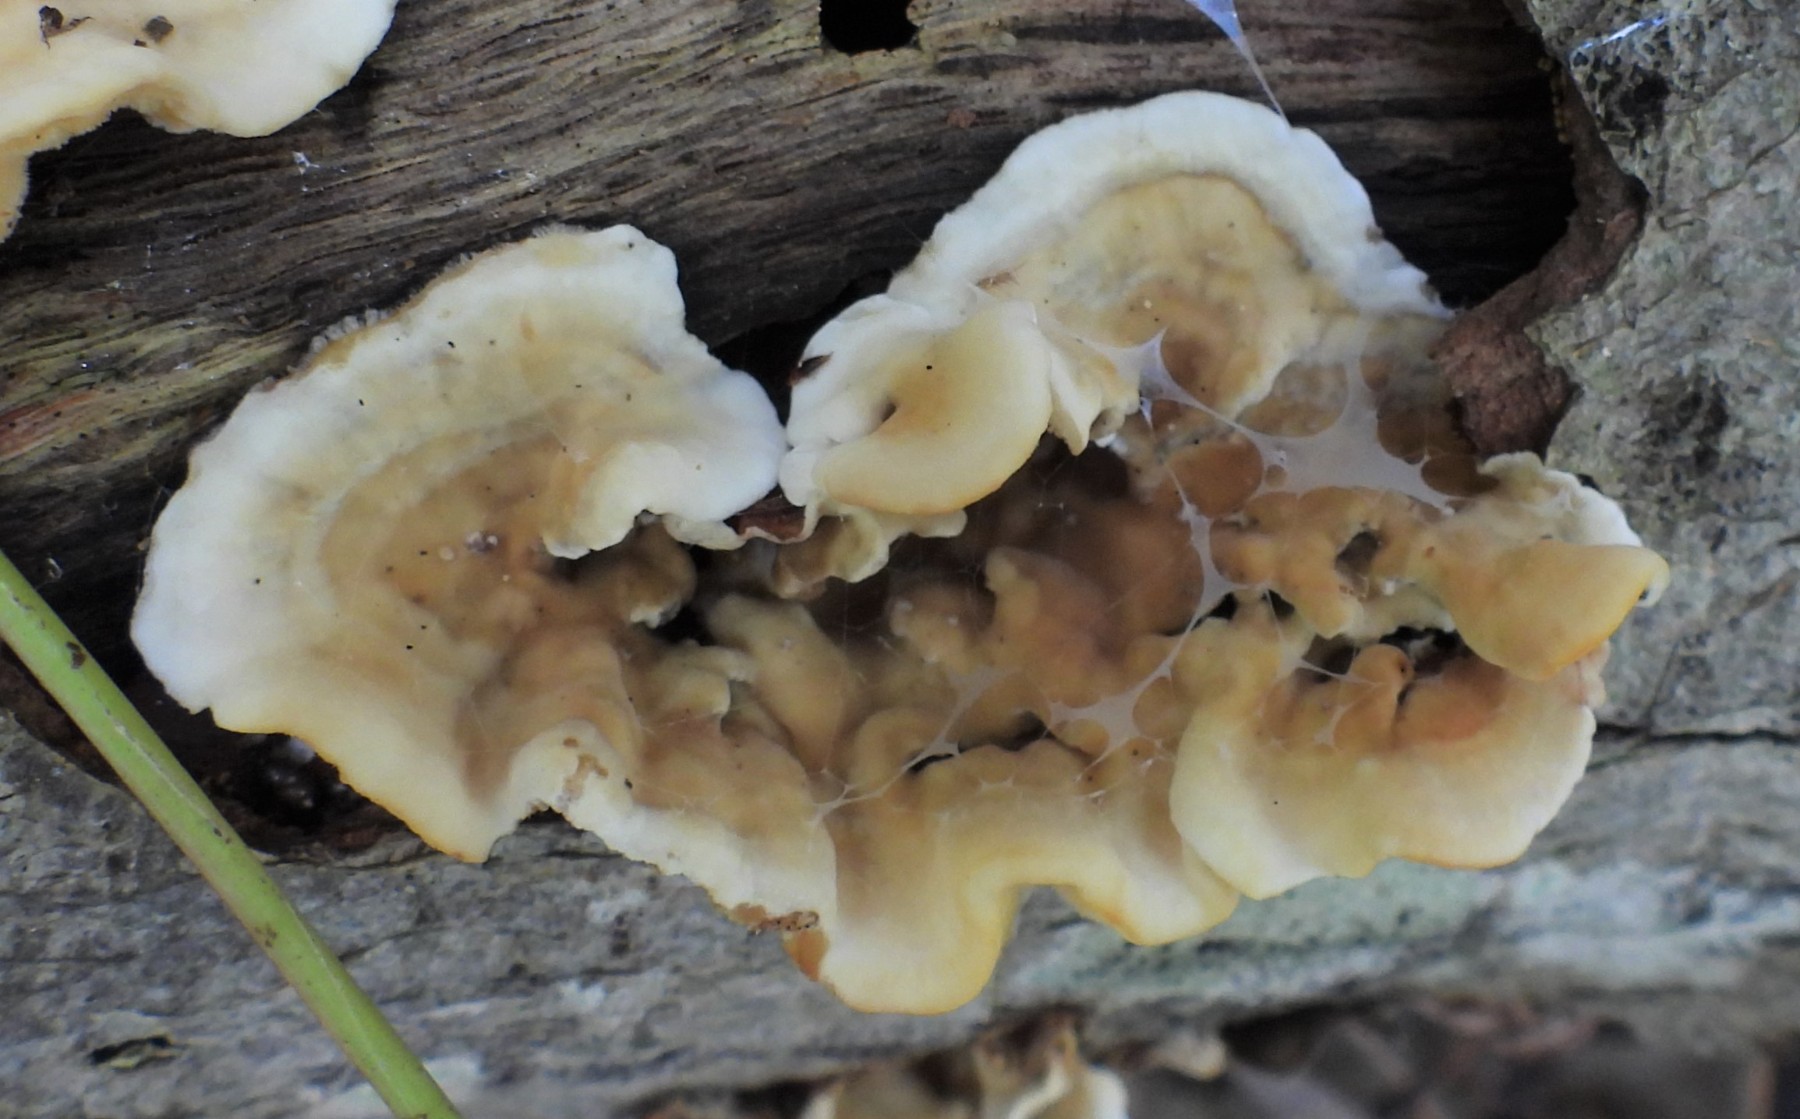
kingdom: Fungi
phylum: Basidiomycota
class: Agaricomycetes
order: Russulales
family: Stereaceae
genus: Stereum
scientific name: Stereum hirsutum
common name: håret lædersvamp
